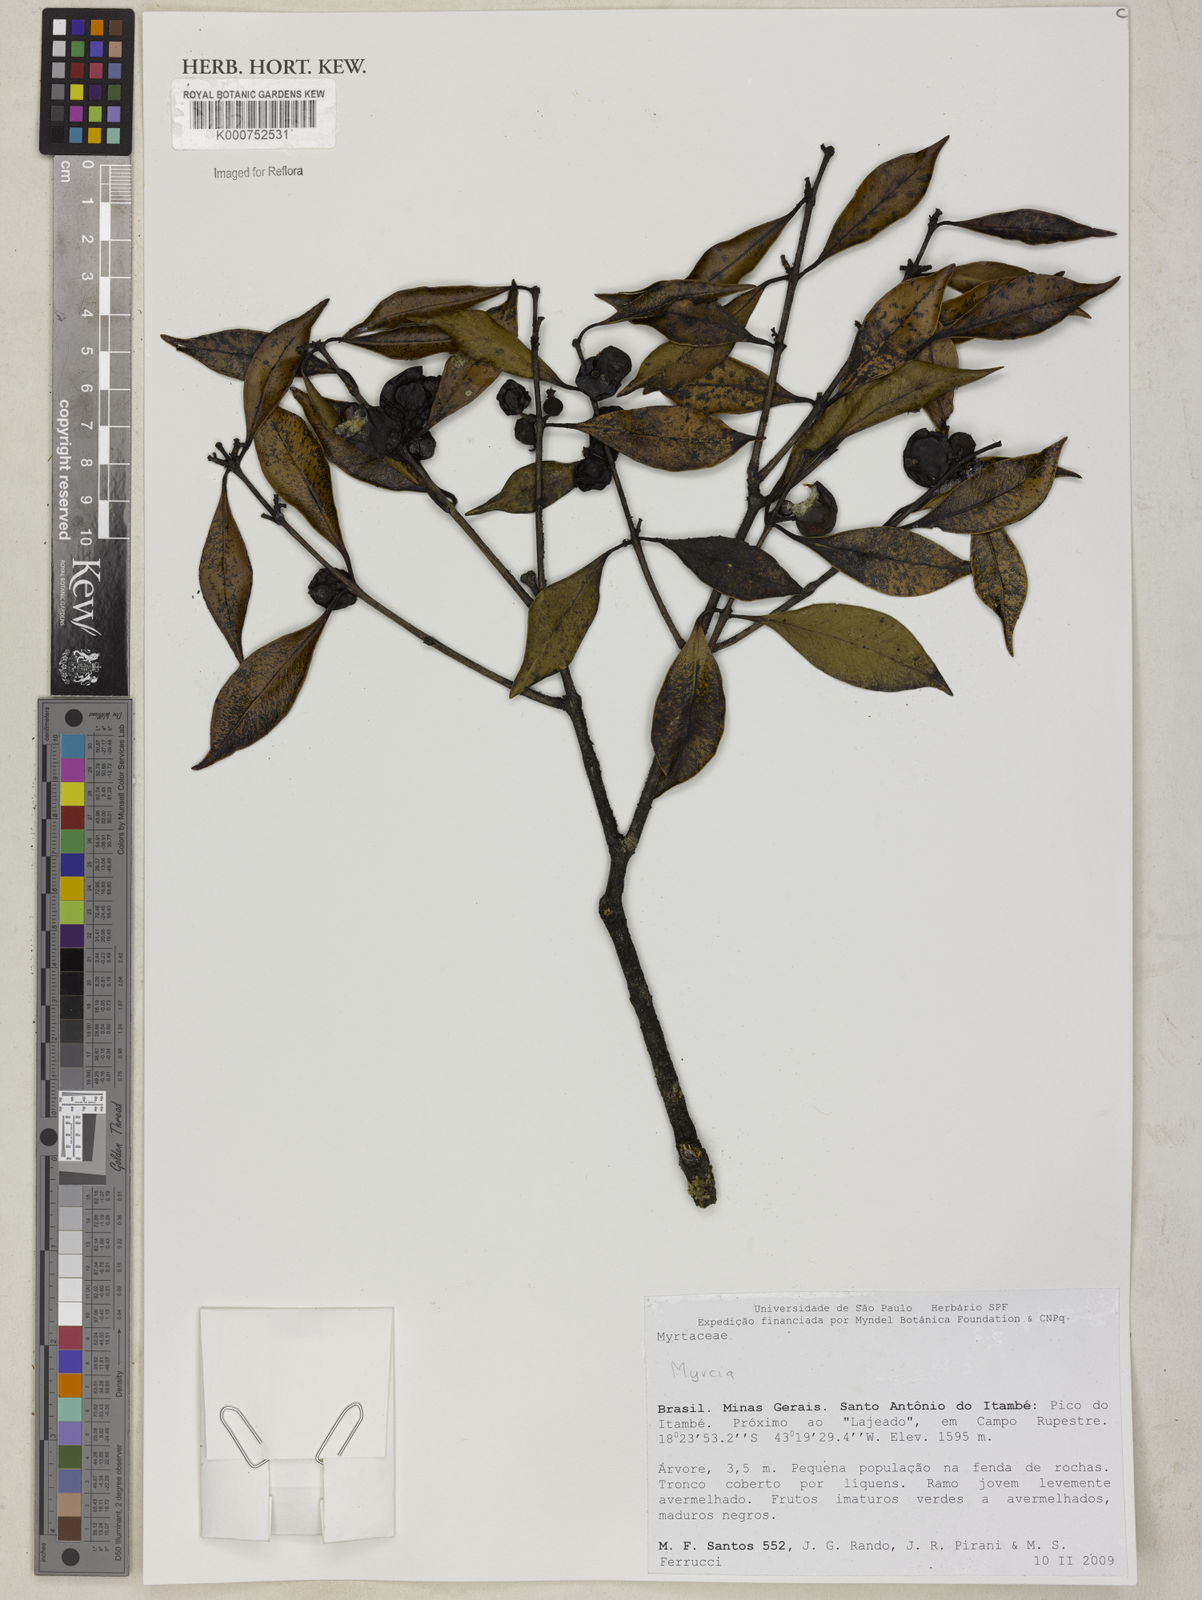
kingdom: Plantae
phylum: Tracheophyta
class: Magnoliopsida
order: Myrtales
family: Myrtaceae
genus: Siphoneugena
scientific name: Siphoneugena
